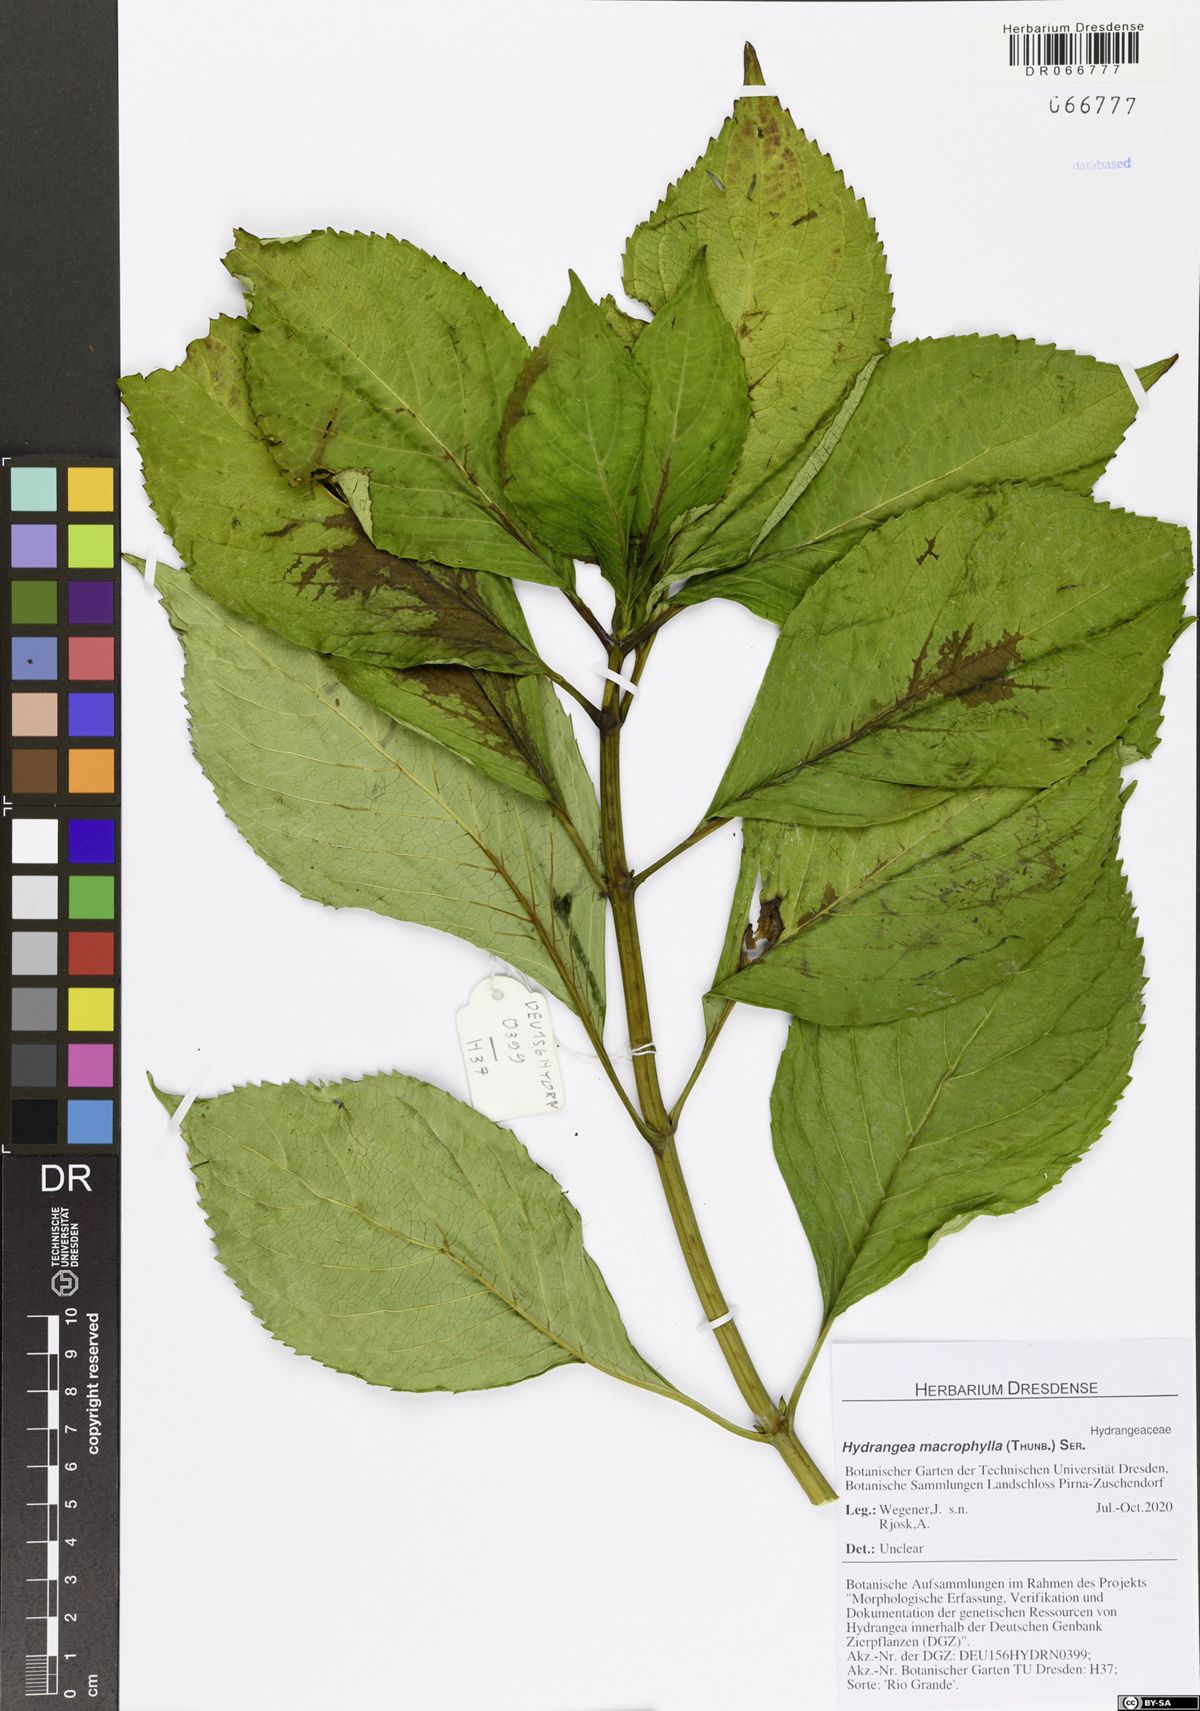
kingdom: Plantae
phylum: Tracheophyta
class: Magnoliopsida
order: Cornales
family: Hydrangeaceae
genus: Hydrangea
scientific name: Hydrangea macrophylla
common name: Hydrangea
